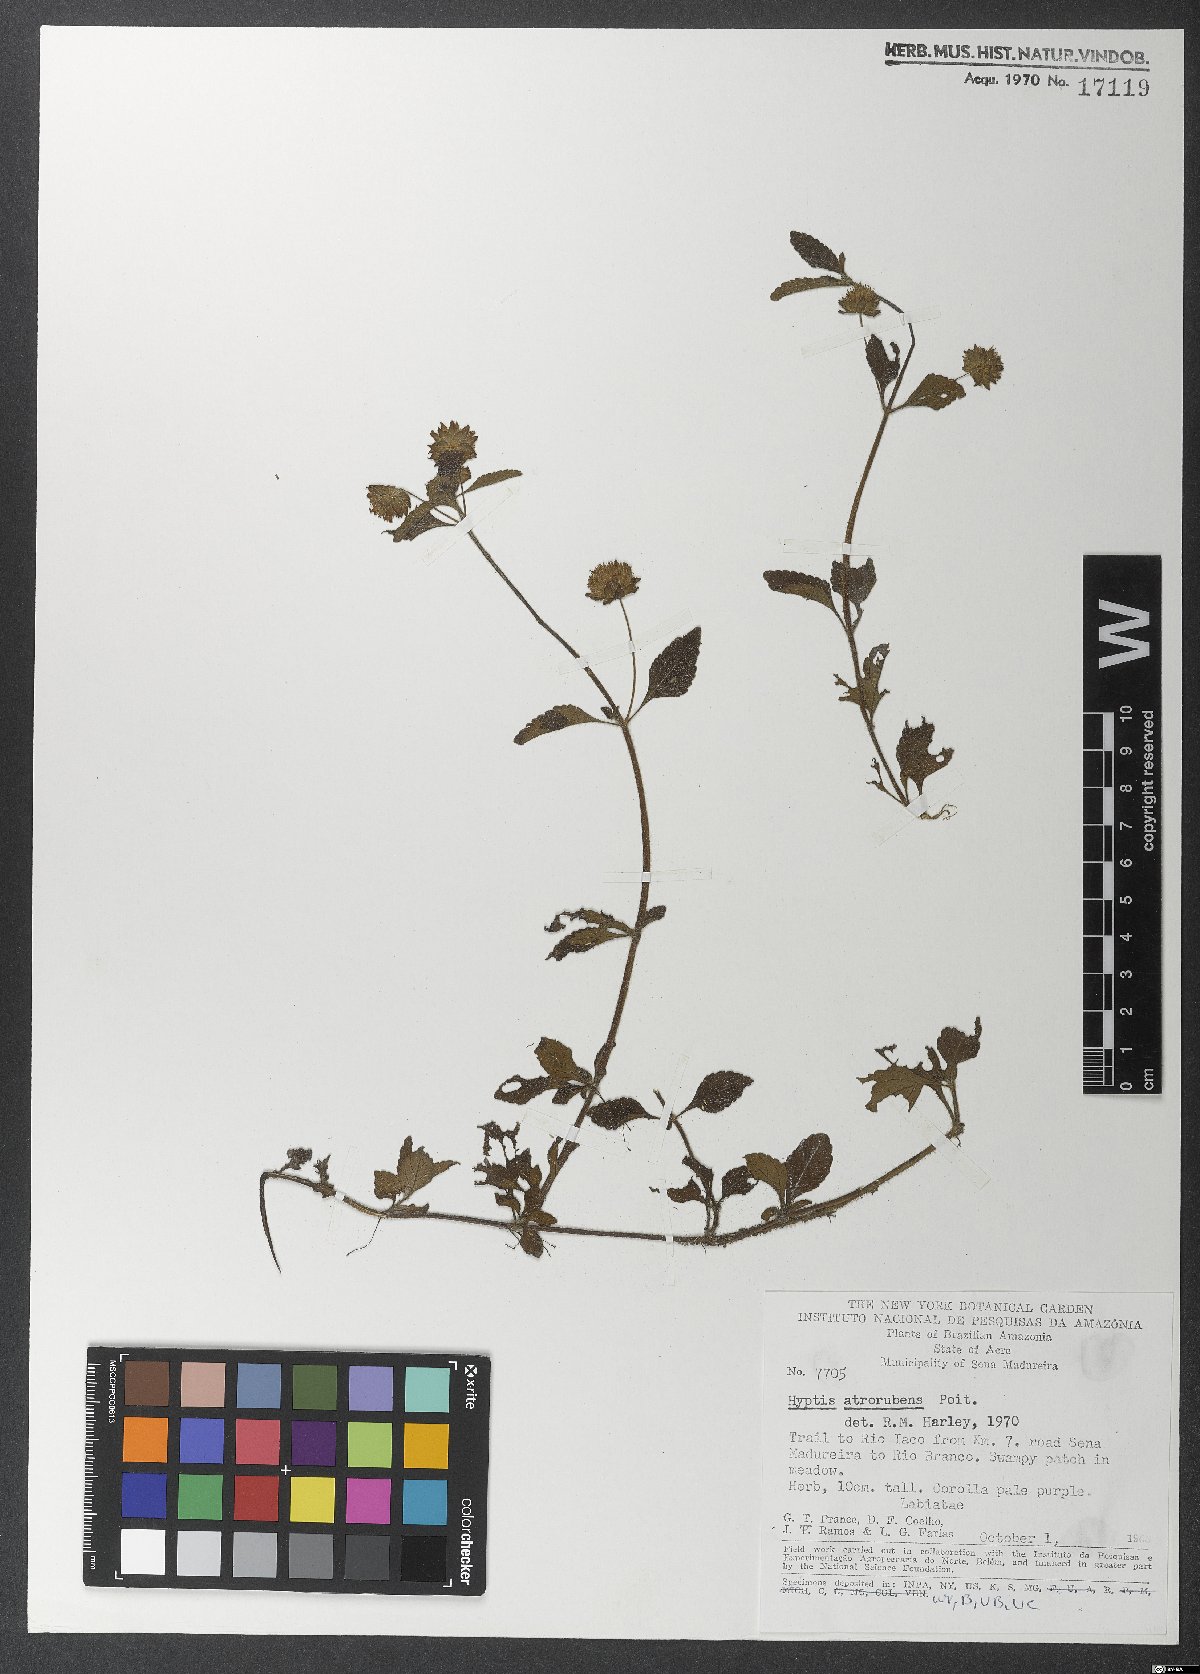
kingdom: Plantae
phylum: Tracheophyta
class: Magnoliopsida
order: Lamiales
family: Lamiaceae
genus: Hyptis
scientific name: Hyptis atrorubens
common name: Lanmant
